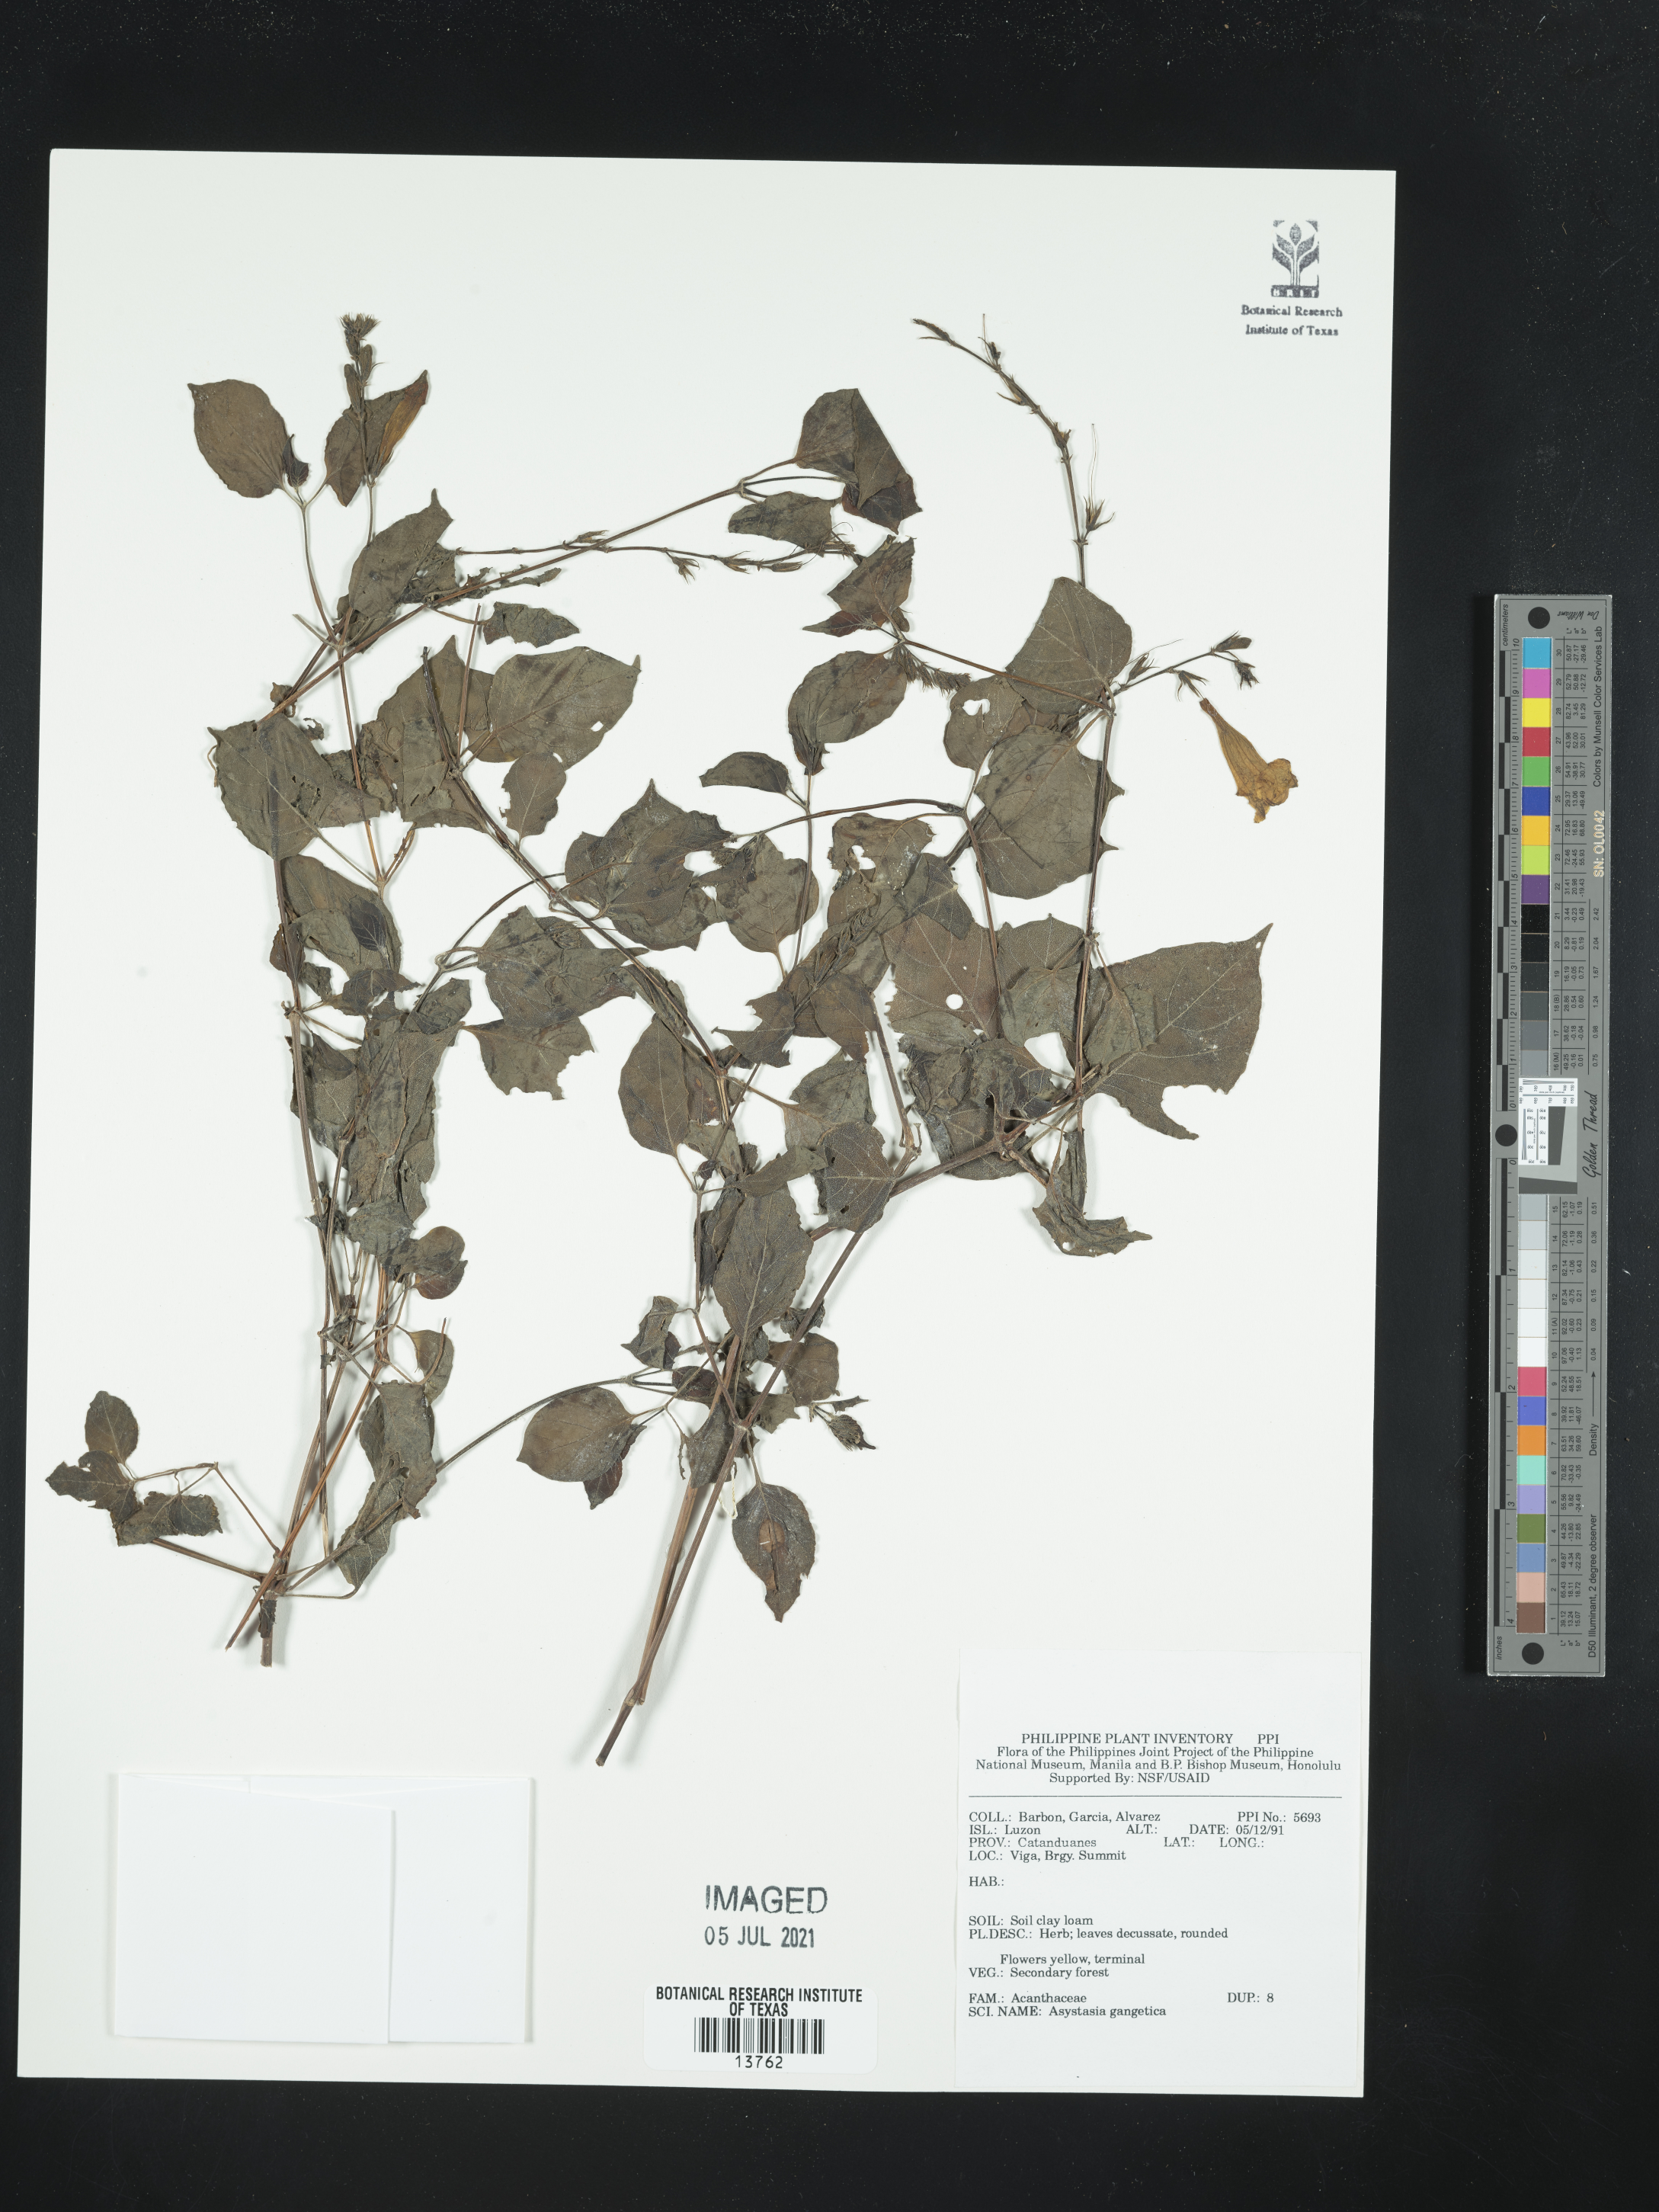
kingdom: Plantae
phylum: Tracheophyta
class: Magnoliopsida
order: Lamiales
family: Acanthaceae
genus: Asystasia
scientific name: Asystasia gangetica
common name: Chinese violet
